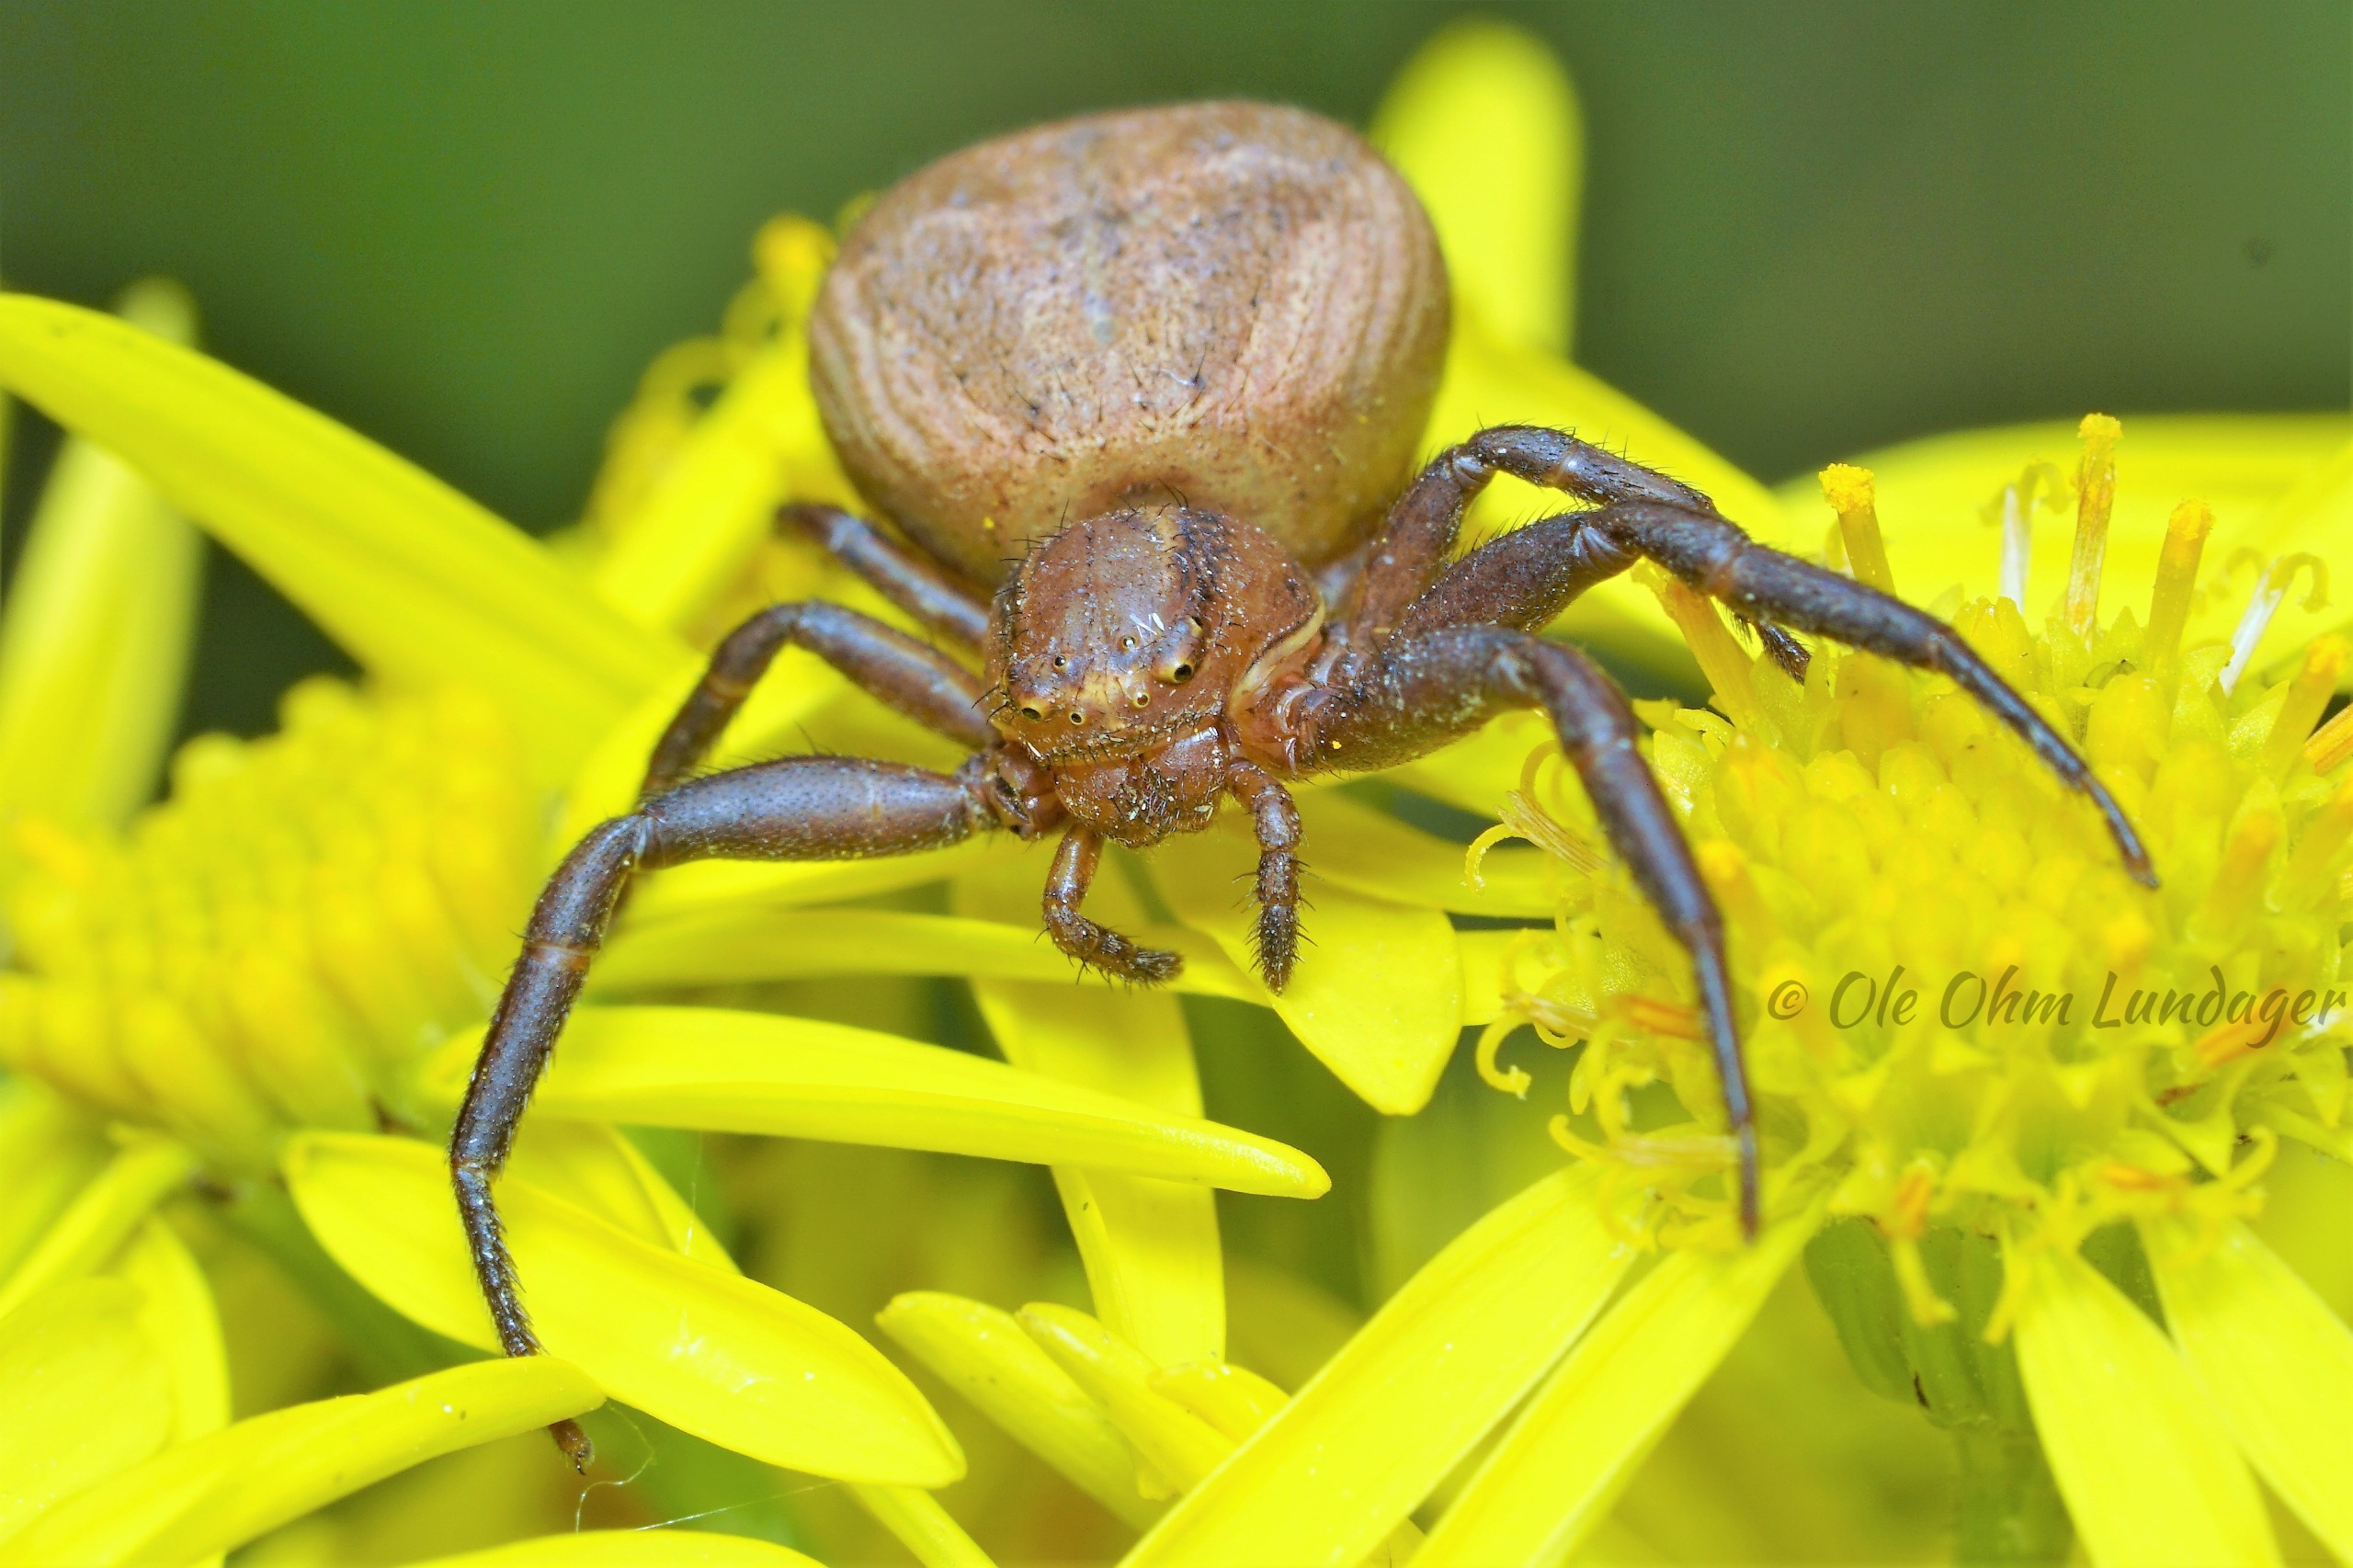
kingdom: Animalia
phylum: Arthropoda
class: Arachnida
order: Araneae
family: Thomisidae
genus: Xysticus
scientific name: Xysticus bifasciatus
